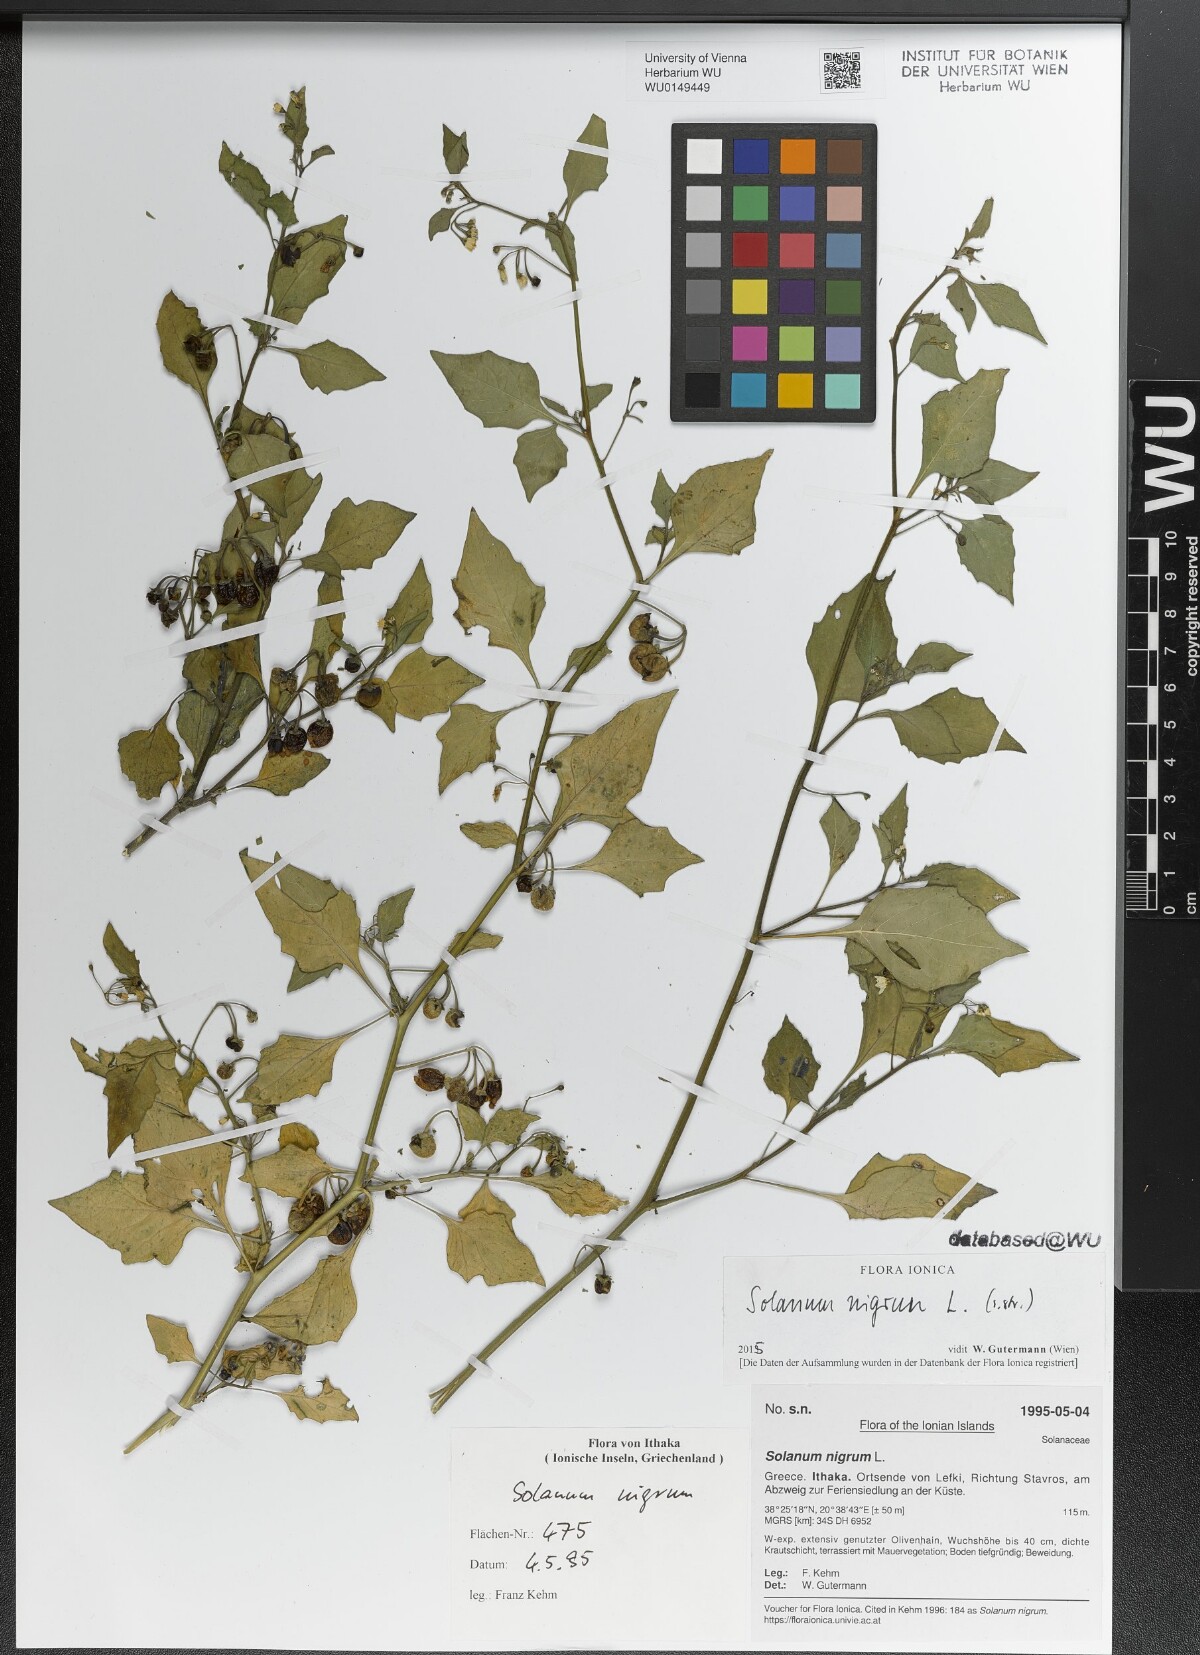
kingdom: Plantae
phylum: Tracheophyta
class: Magnoliopsida
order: Solanales
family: Solanaceae
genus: Solanum
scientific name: Solanum nigrum
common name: Black nightshade
